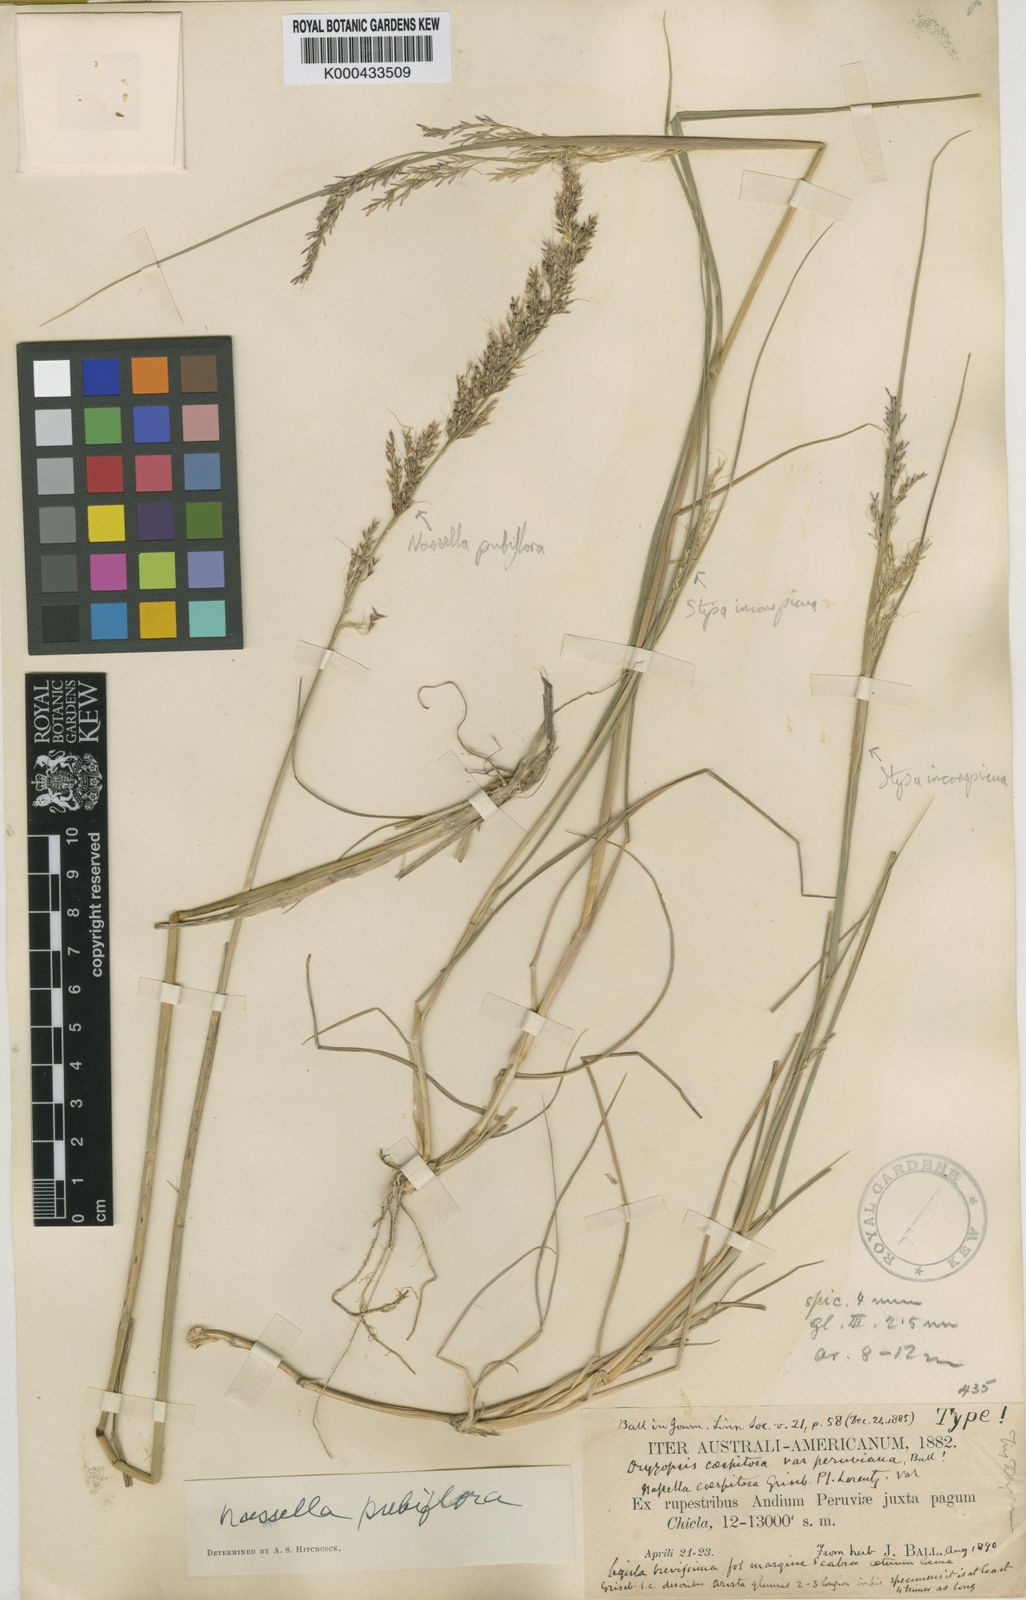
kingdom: Plantae
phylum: Tracheophyta
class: Liliopsida
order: Poales
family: Poaceae
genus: Nassella
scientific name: Nassella pubiflora
